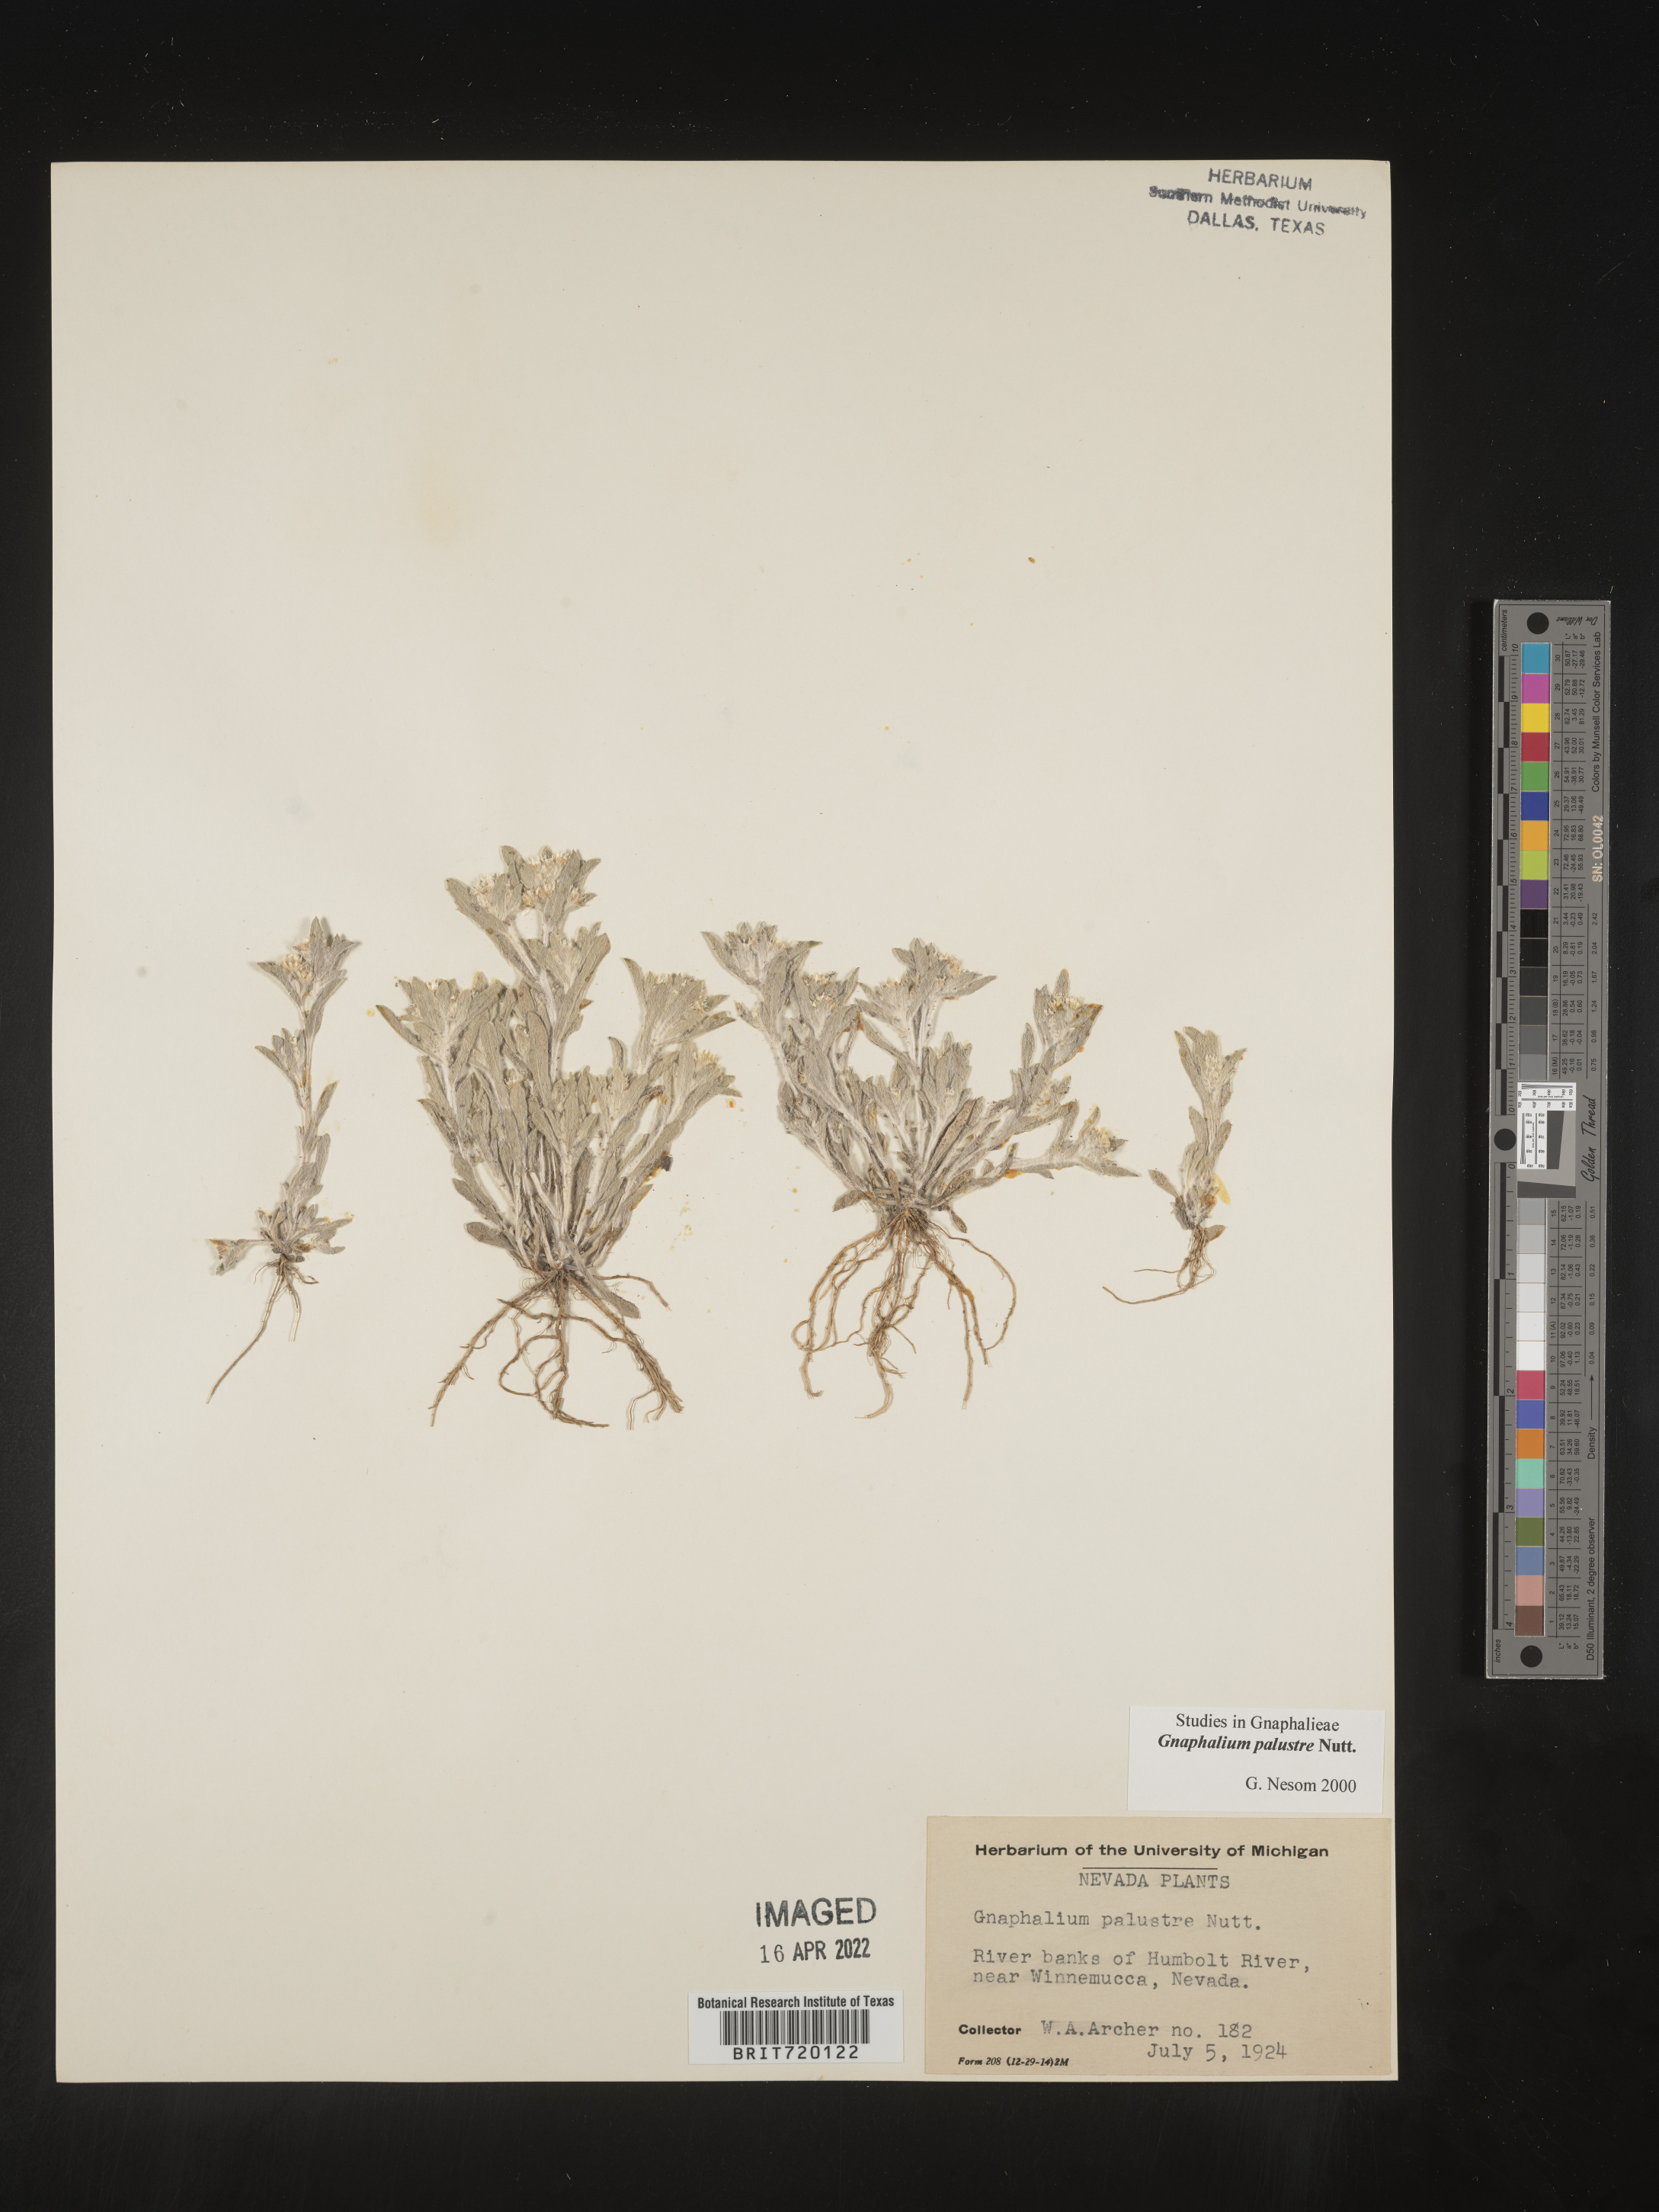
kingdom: Plantae
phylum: Tracheophyta
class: Magnoliopsida
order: Asterales
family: Asteraceae
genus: Gnaphalium
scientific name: Gnaphalium palustre
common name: Western marsh cudweed
